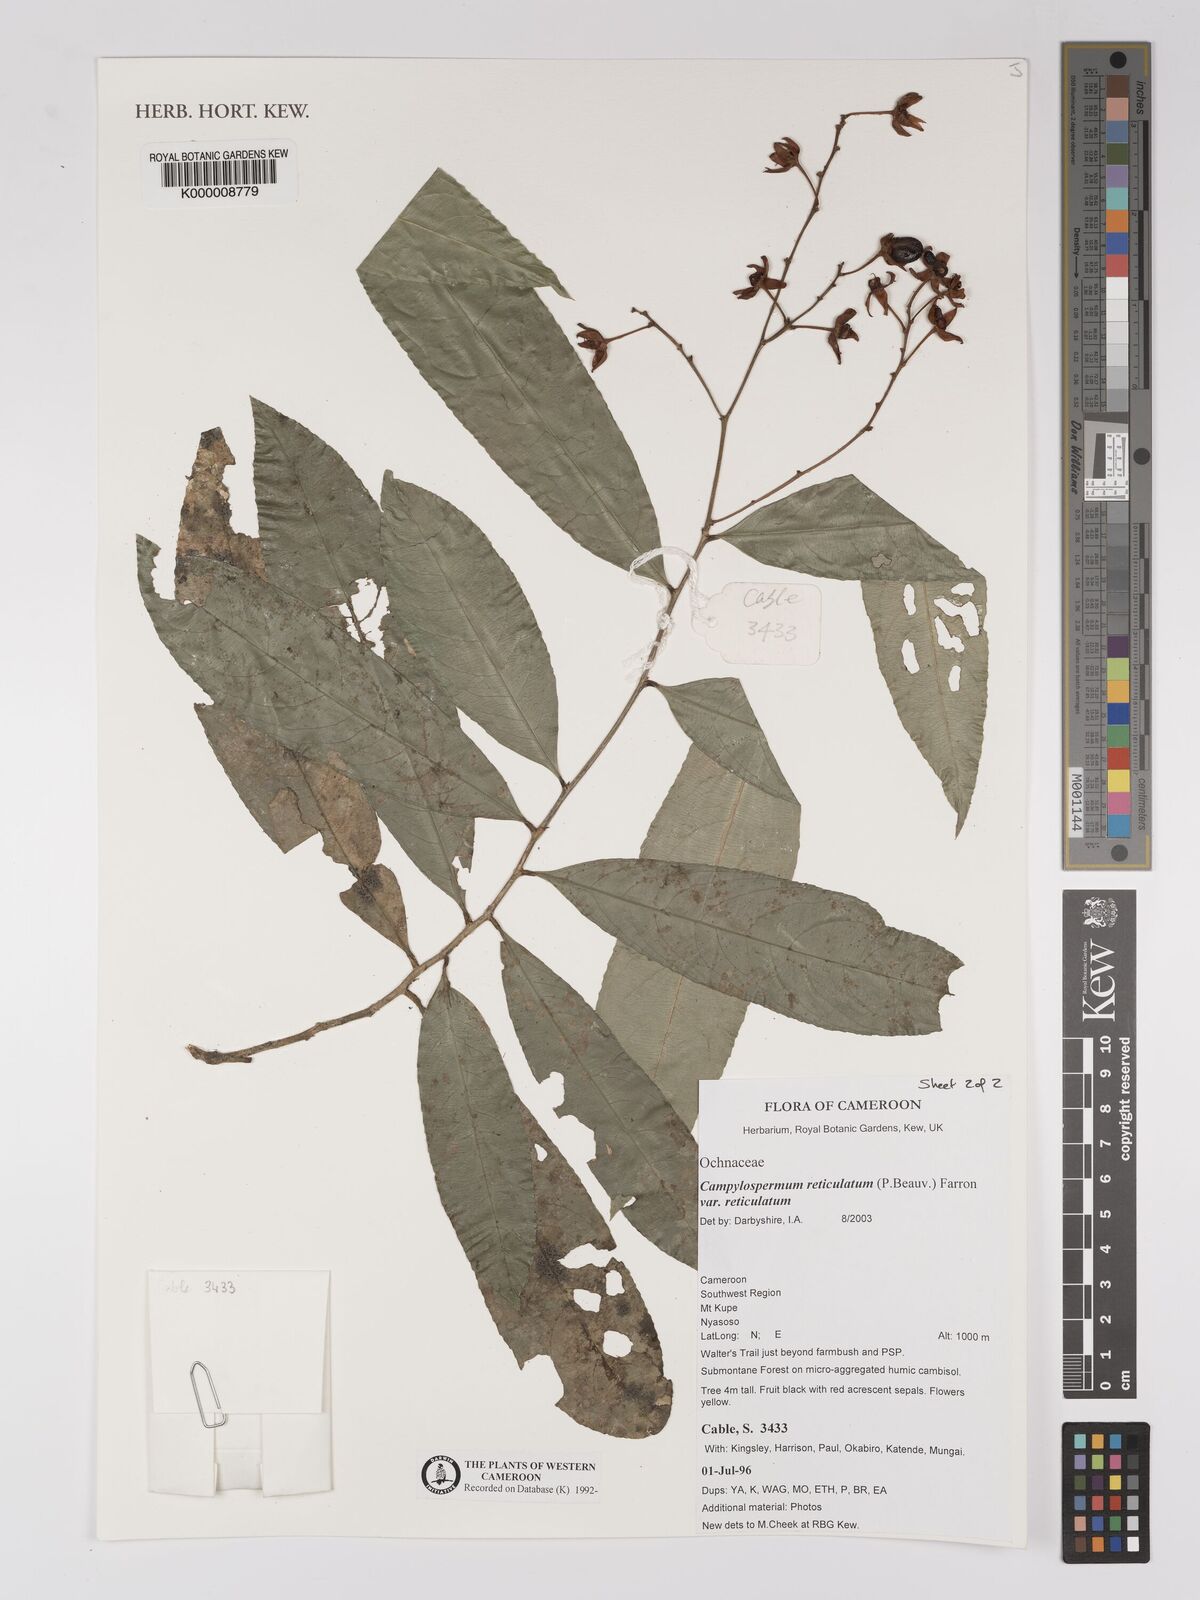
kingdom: Plantae
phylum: Tracheophyta
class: Magnoliopsida
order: Malpighiales
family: Ochnaceae
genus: Campylospermum
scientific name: Campylospermum reticulatum
